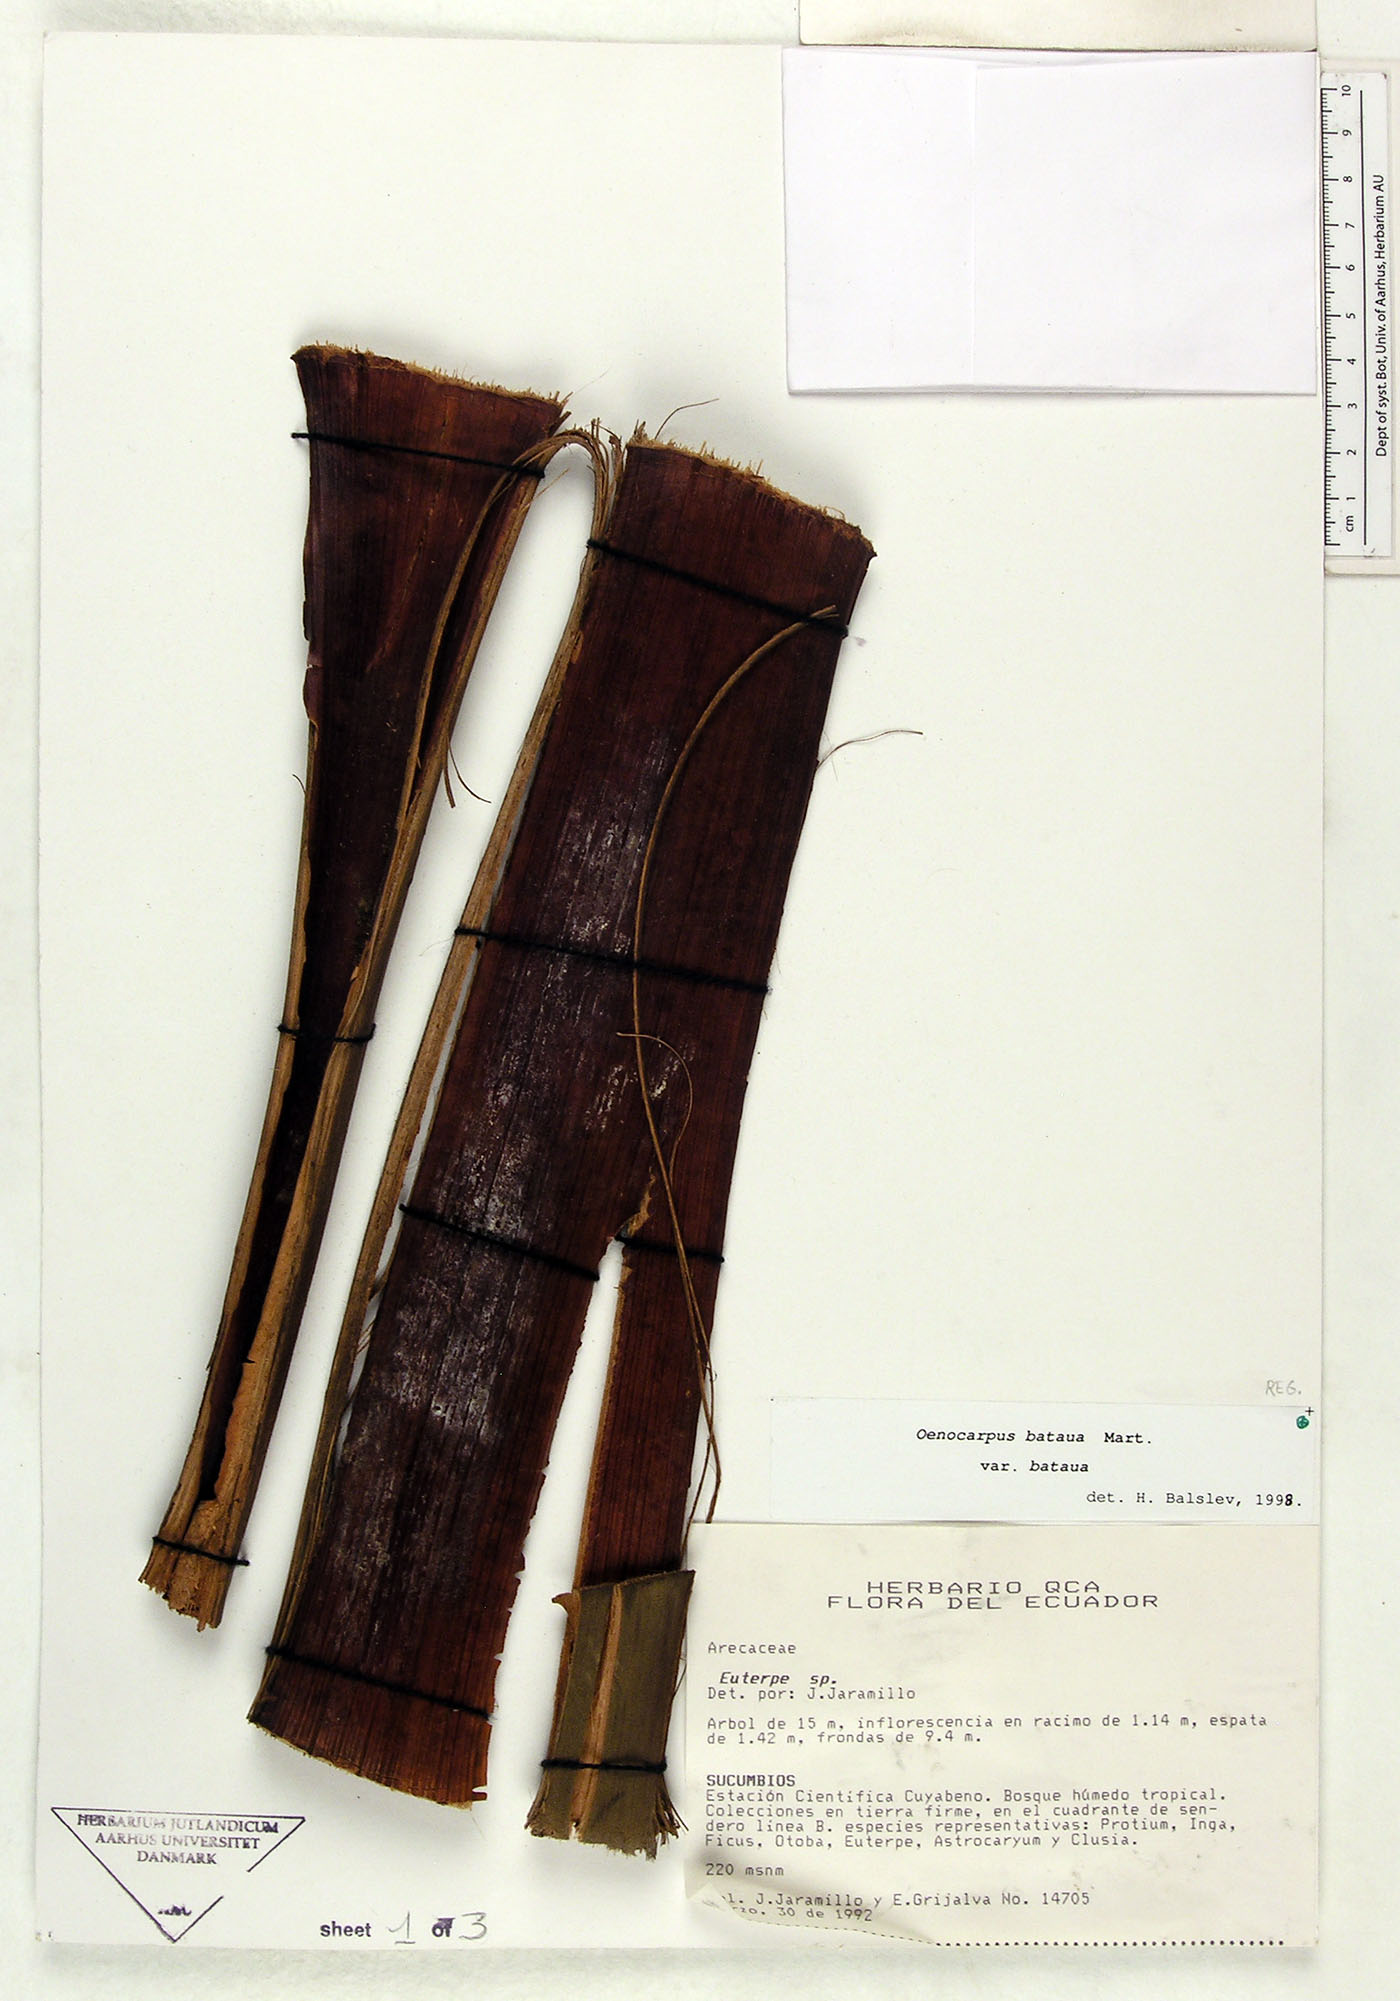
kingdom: Plantae
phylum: Tracheophyta
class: Liliopsida
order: Arecales
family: Arecaceae
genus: Oenocarpus
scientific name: Oenocarpus bataua
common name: Bataua palm
